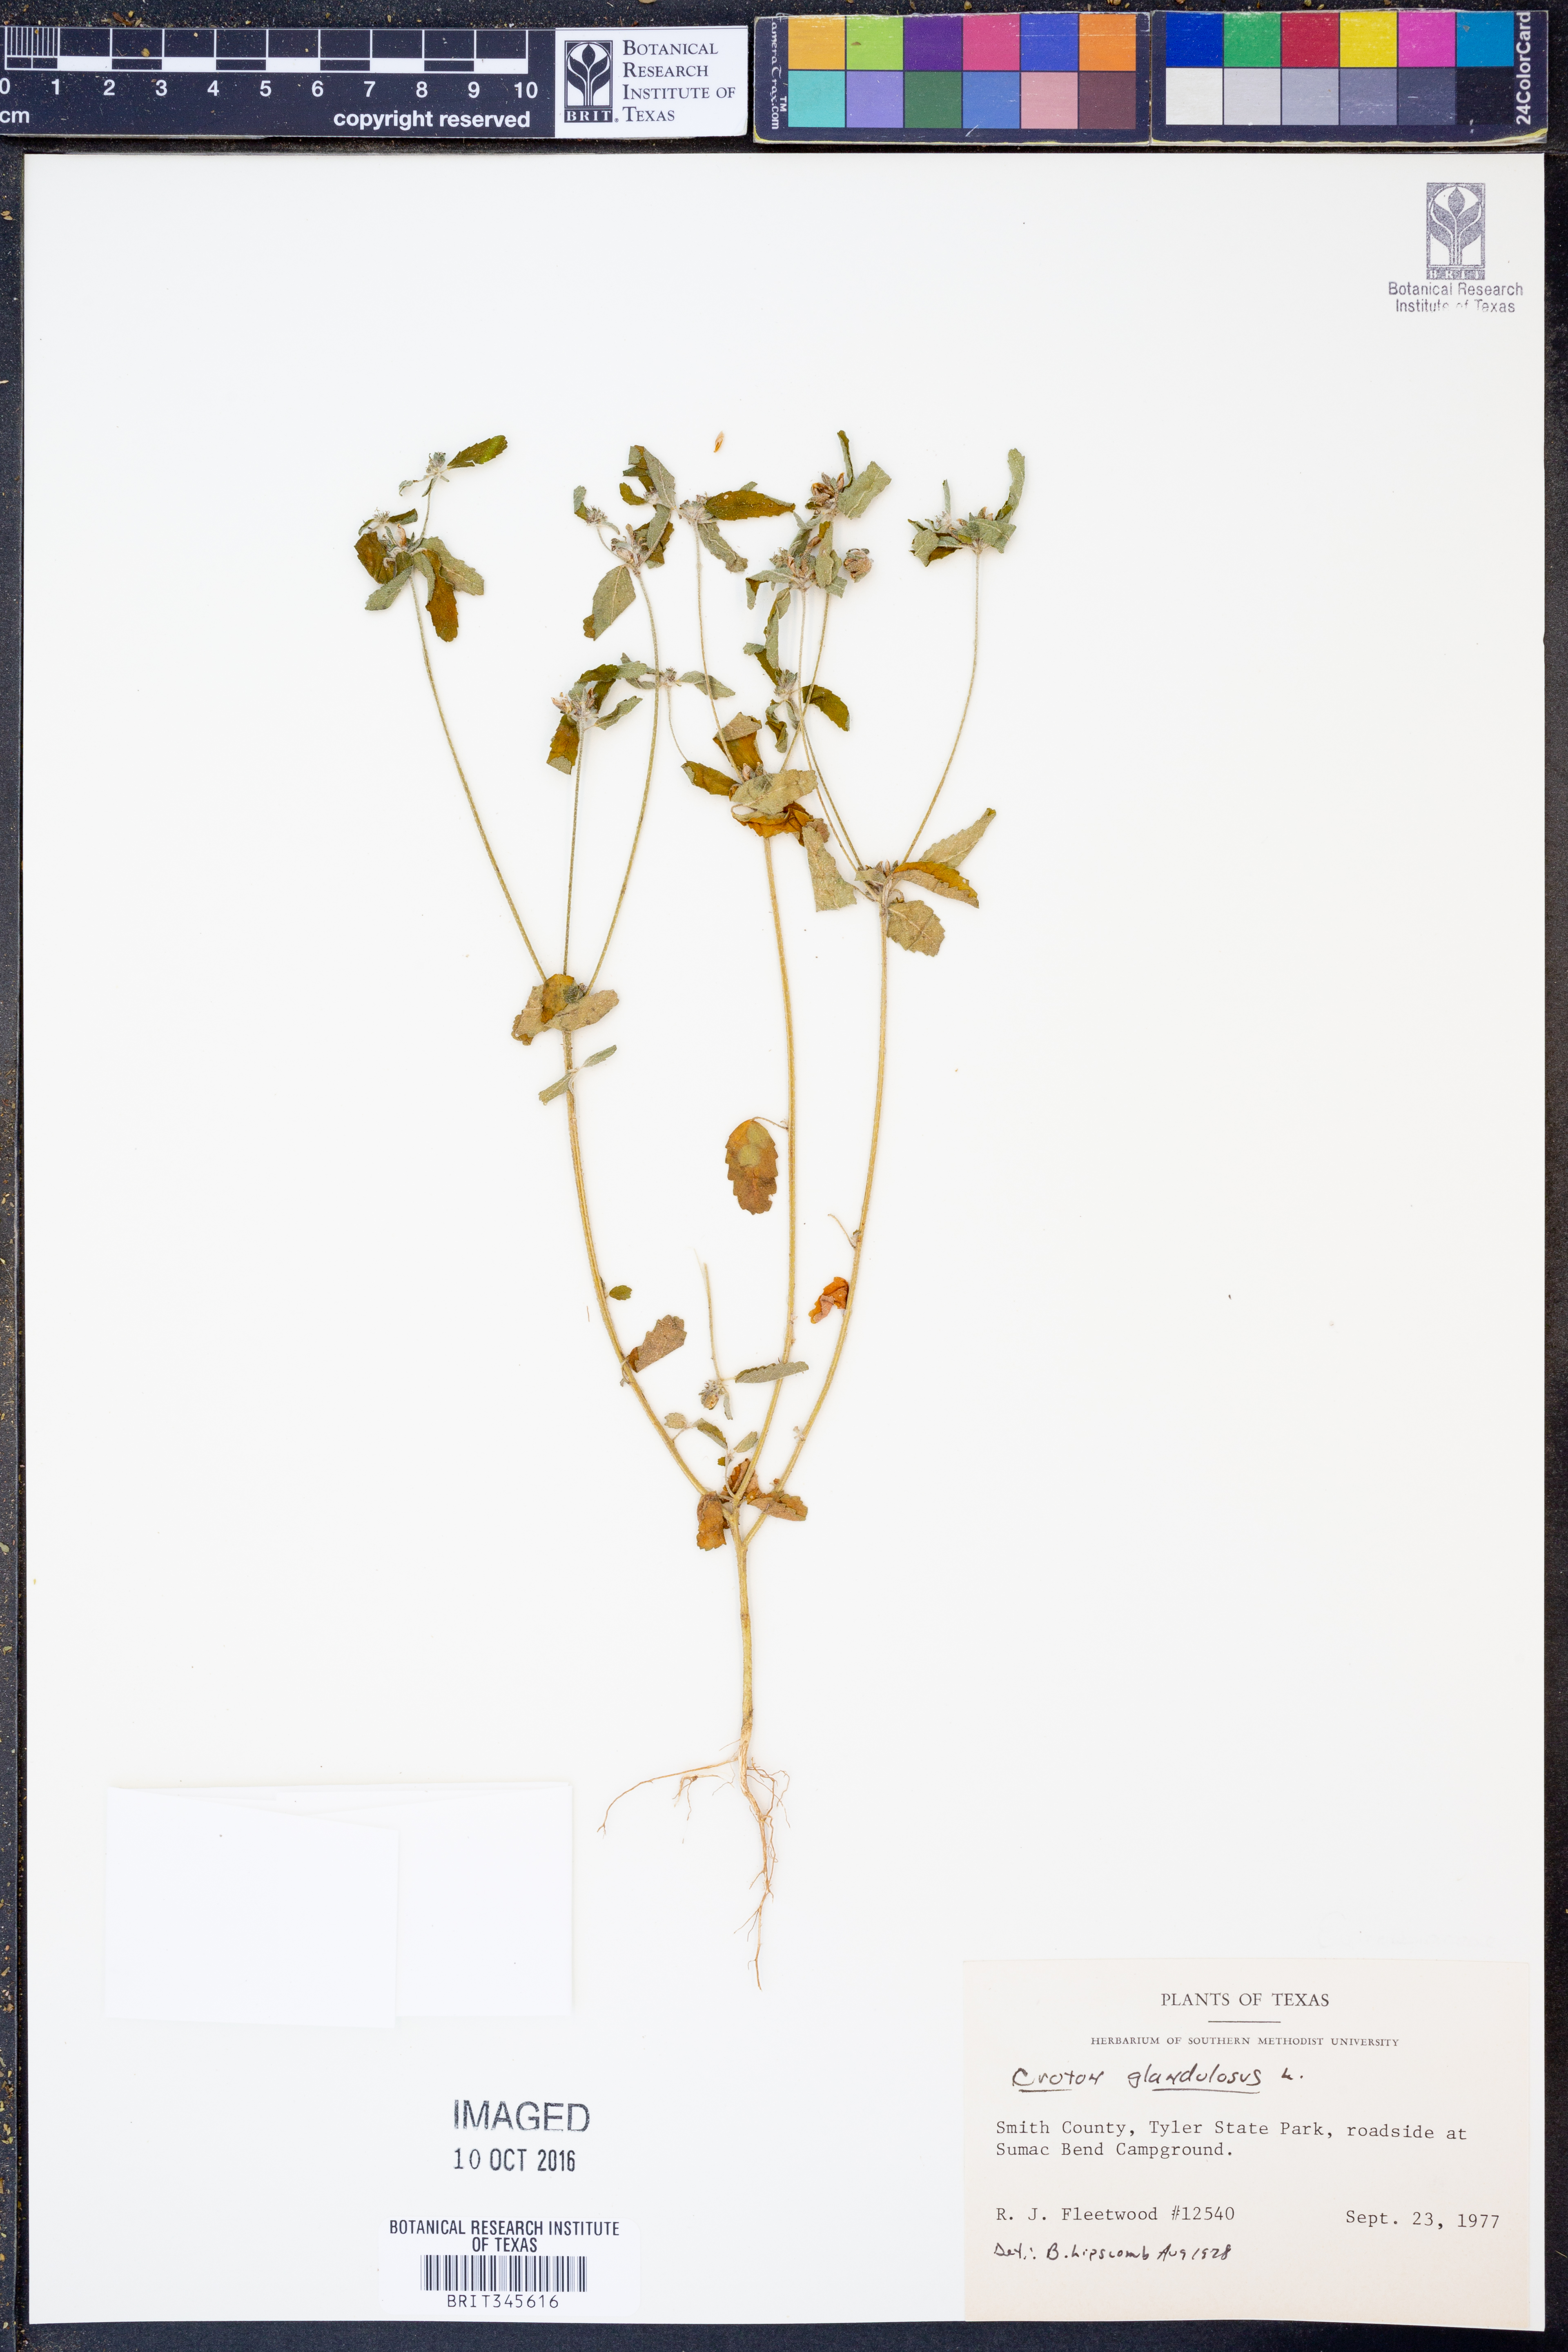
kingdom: Plantae
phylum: Tracheophyta
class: Magnoliopsida
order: Malpighiales
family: Euphorbiaceae
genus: Croton
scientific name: Croton glandulosus
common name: Tropic croton
